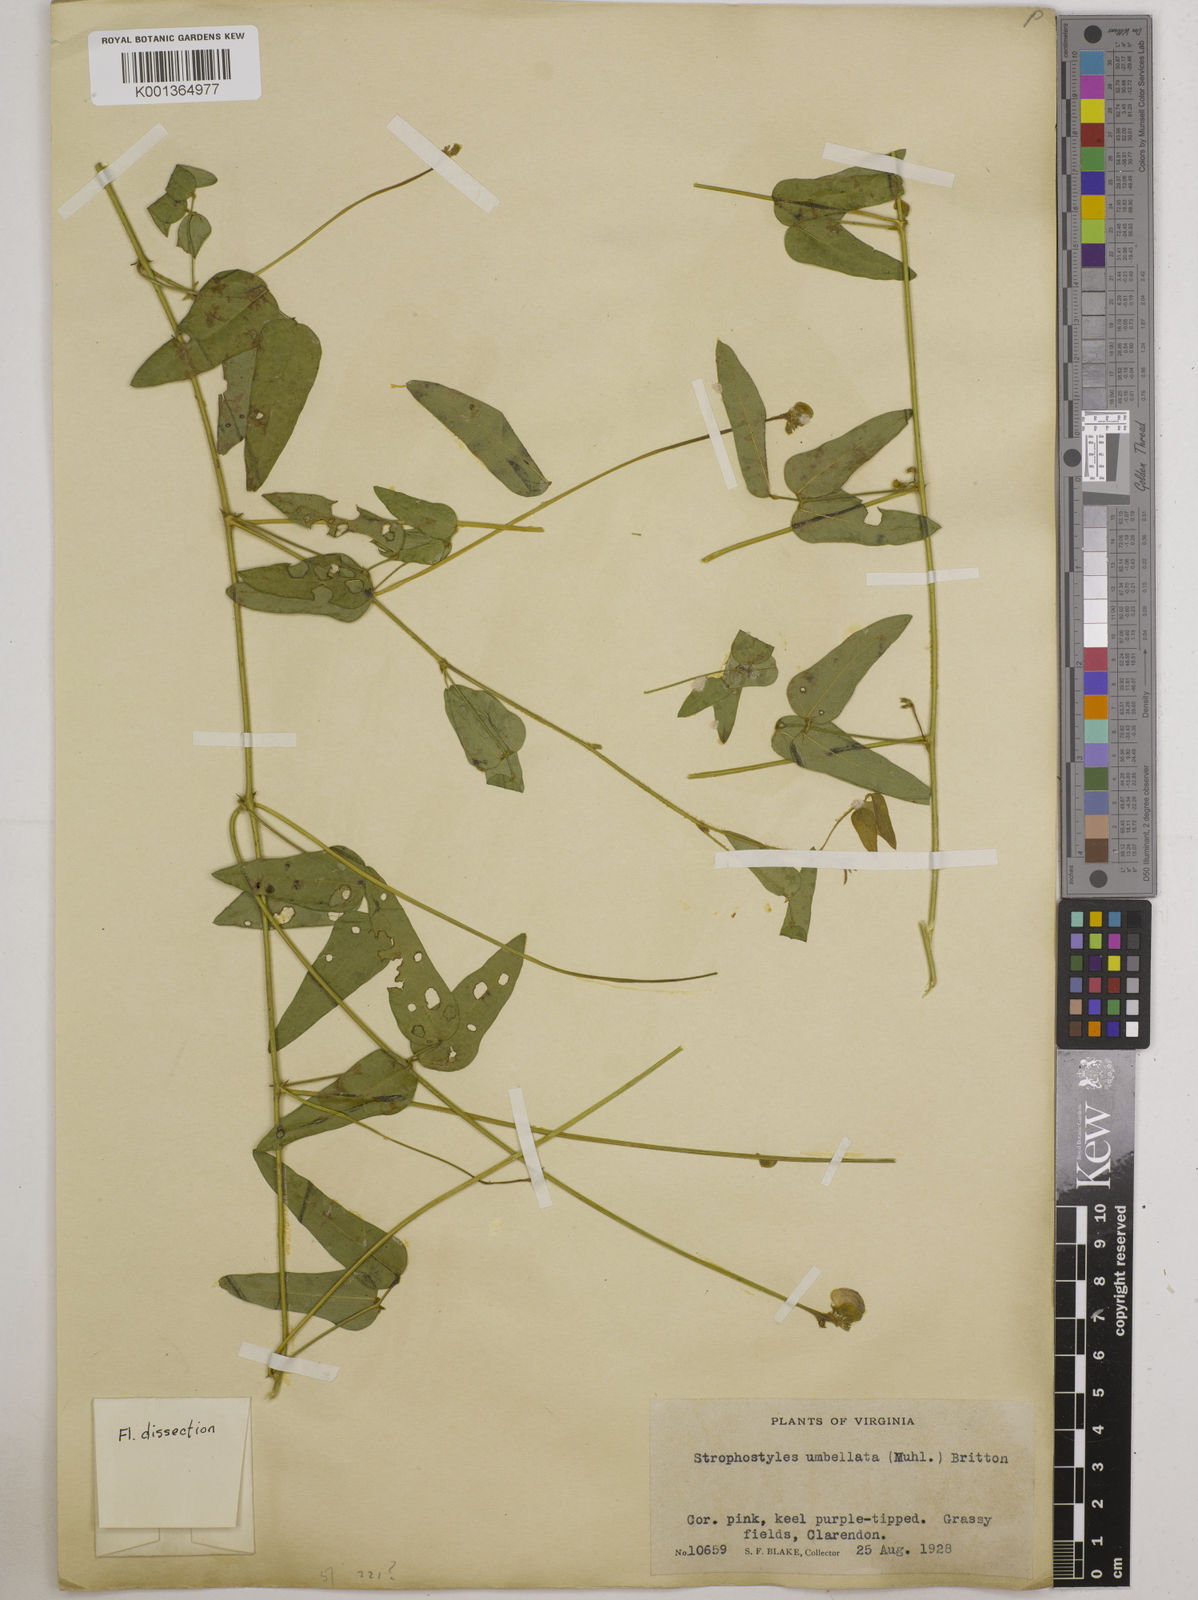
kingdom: Plantae
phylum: Tracheophyta
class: Magnoliopsida
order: Fabales
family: Fabaceae
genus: Strophostyles
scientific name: Strophostyles umbellata
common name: Perennial wild bean
